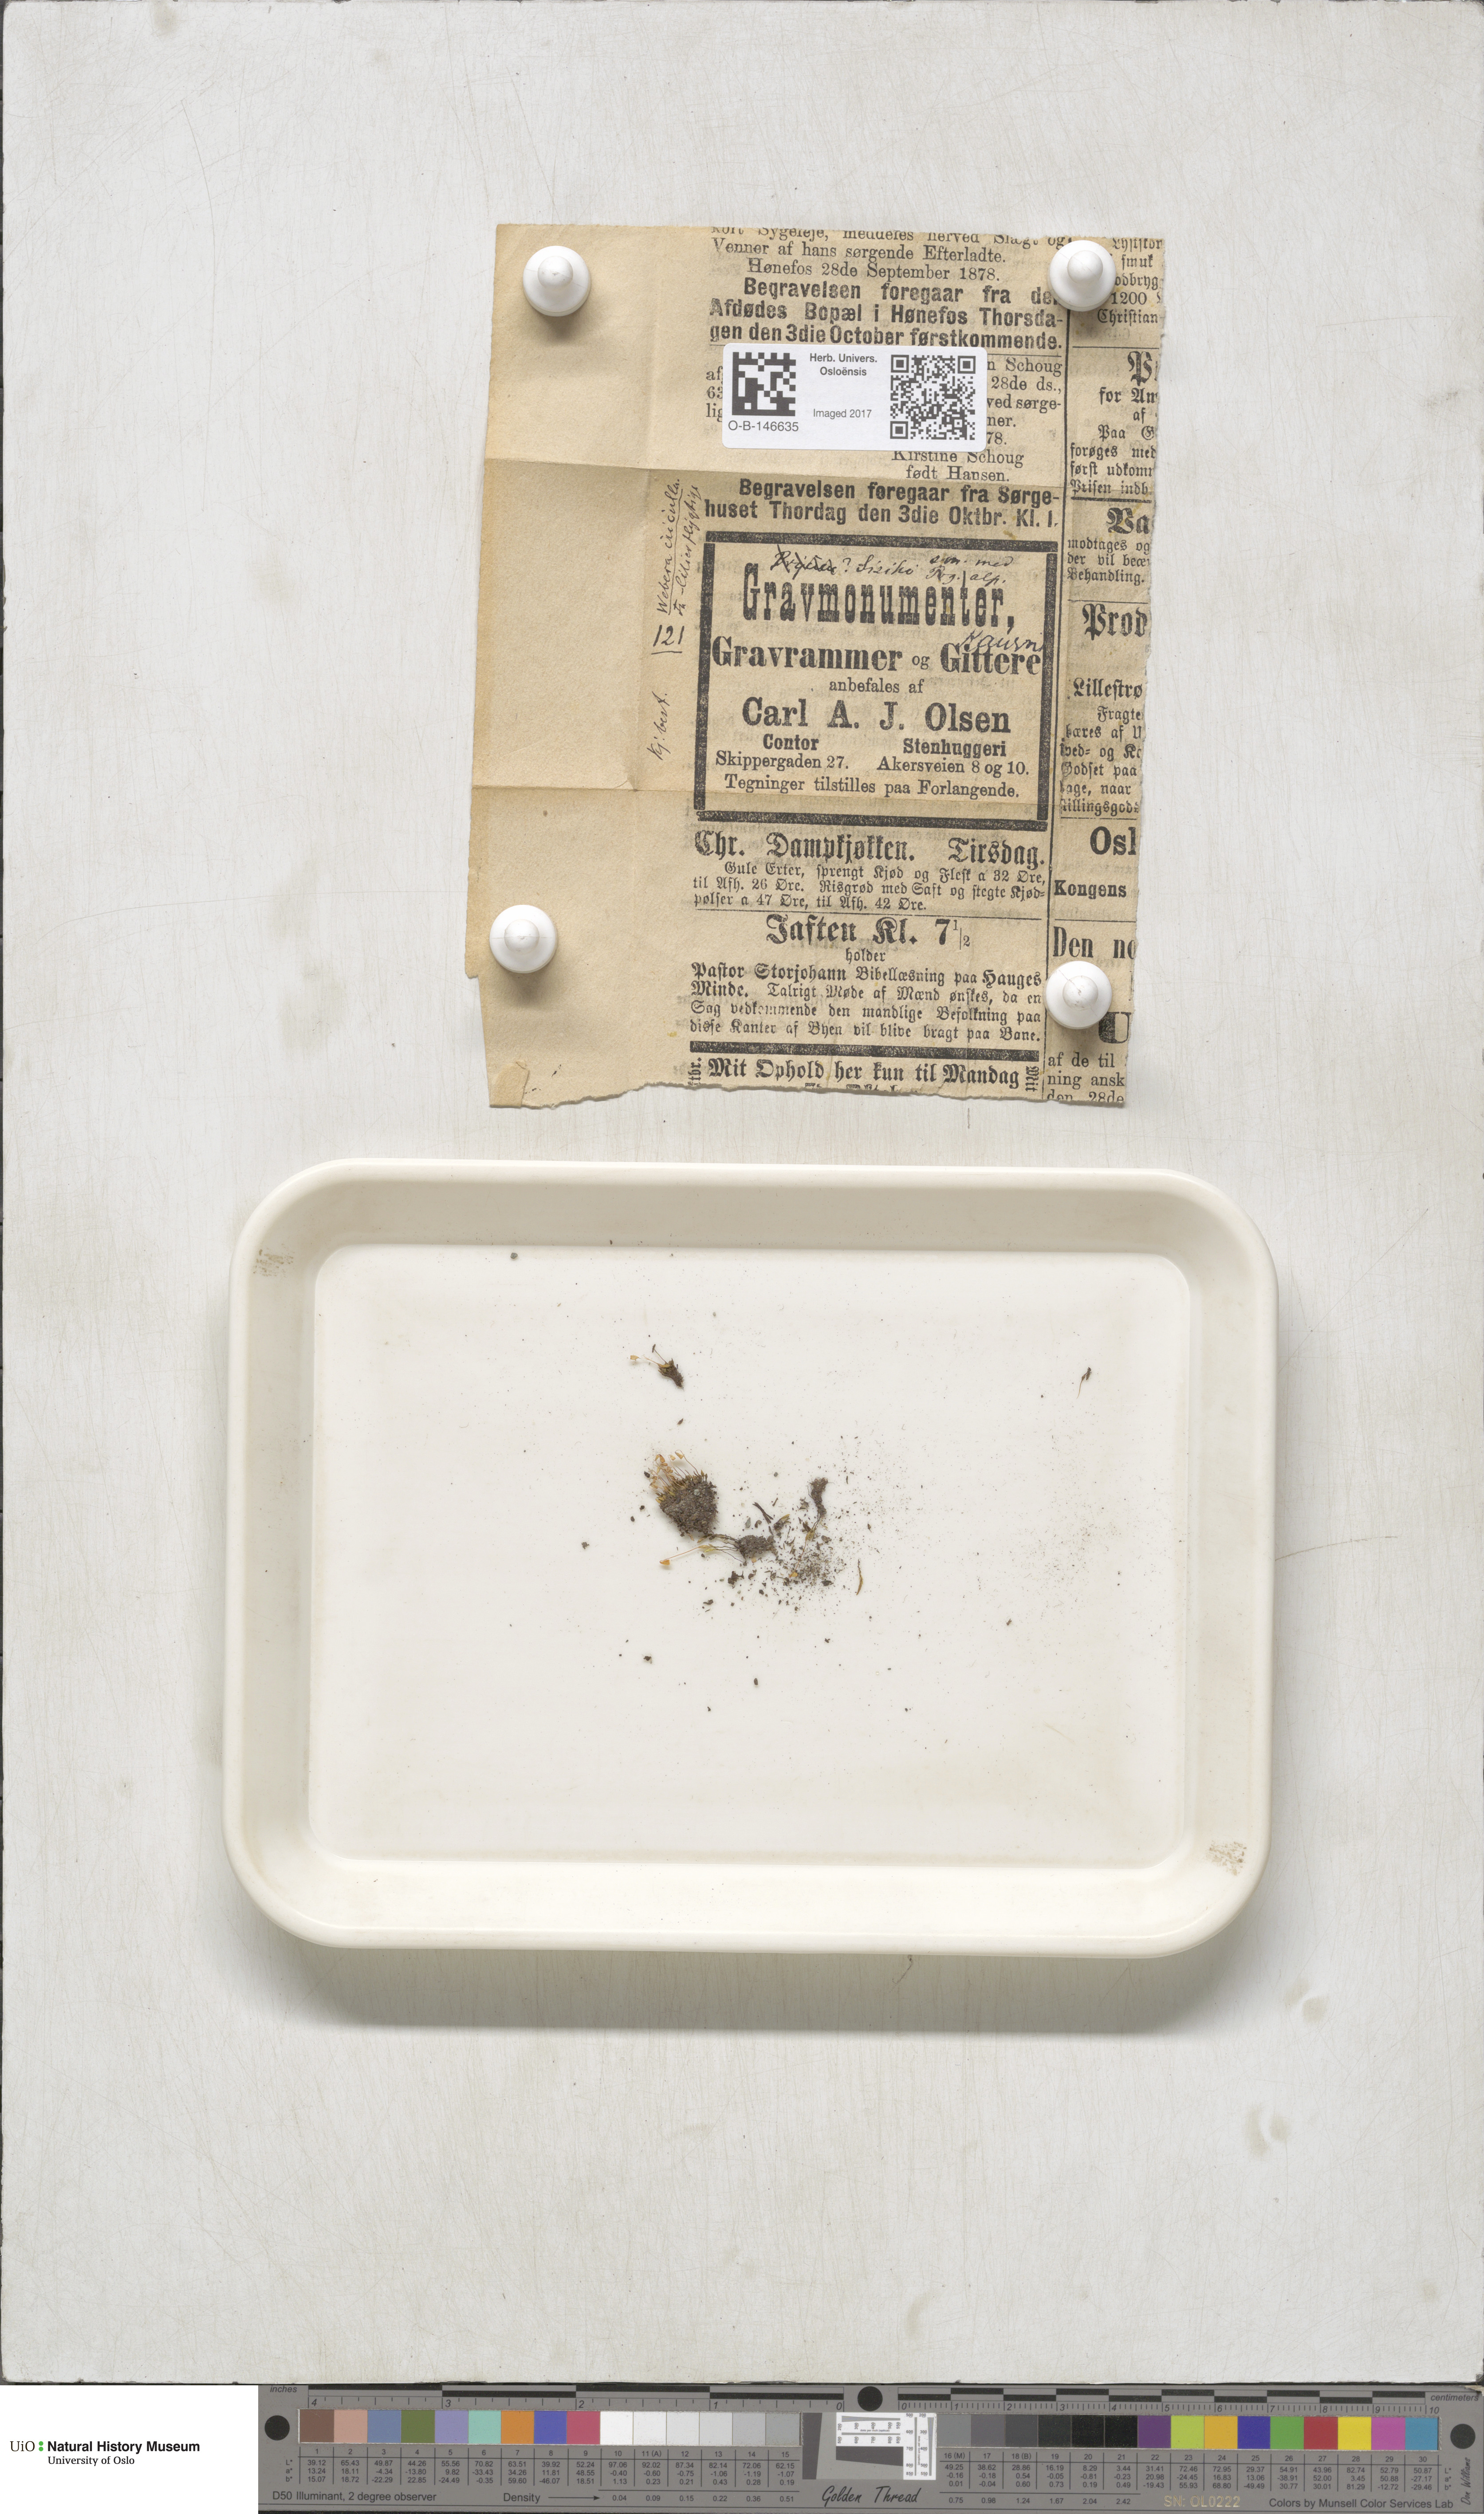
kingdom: Plantae
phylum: Bryophyta
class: Bryopsida
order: Bryales
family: Mniaceae
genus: Pohlia
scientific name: Pohlia obtusifolia
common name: Blunt nodding moss
